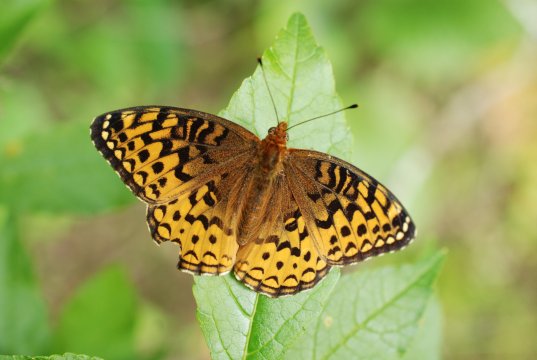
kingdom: Animalia
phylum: Arthropoda
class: Insecta
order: Lepidoptera
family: Nymphalidae
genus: Speyeria
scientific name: Speyeria atlantis
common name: Atlantis Fritillary
